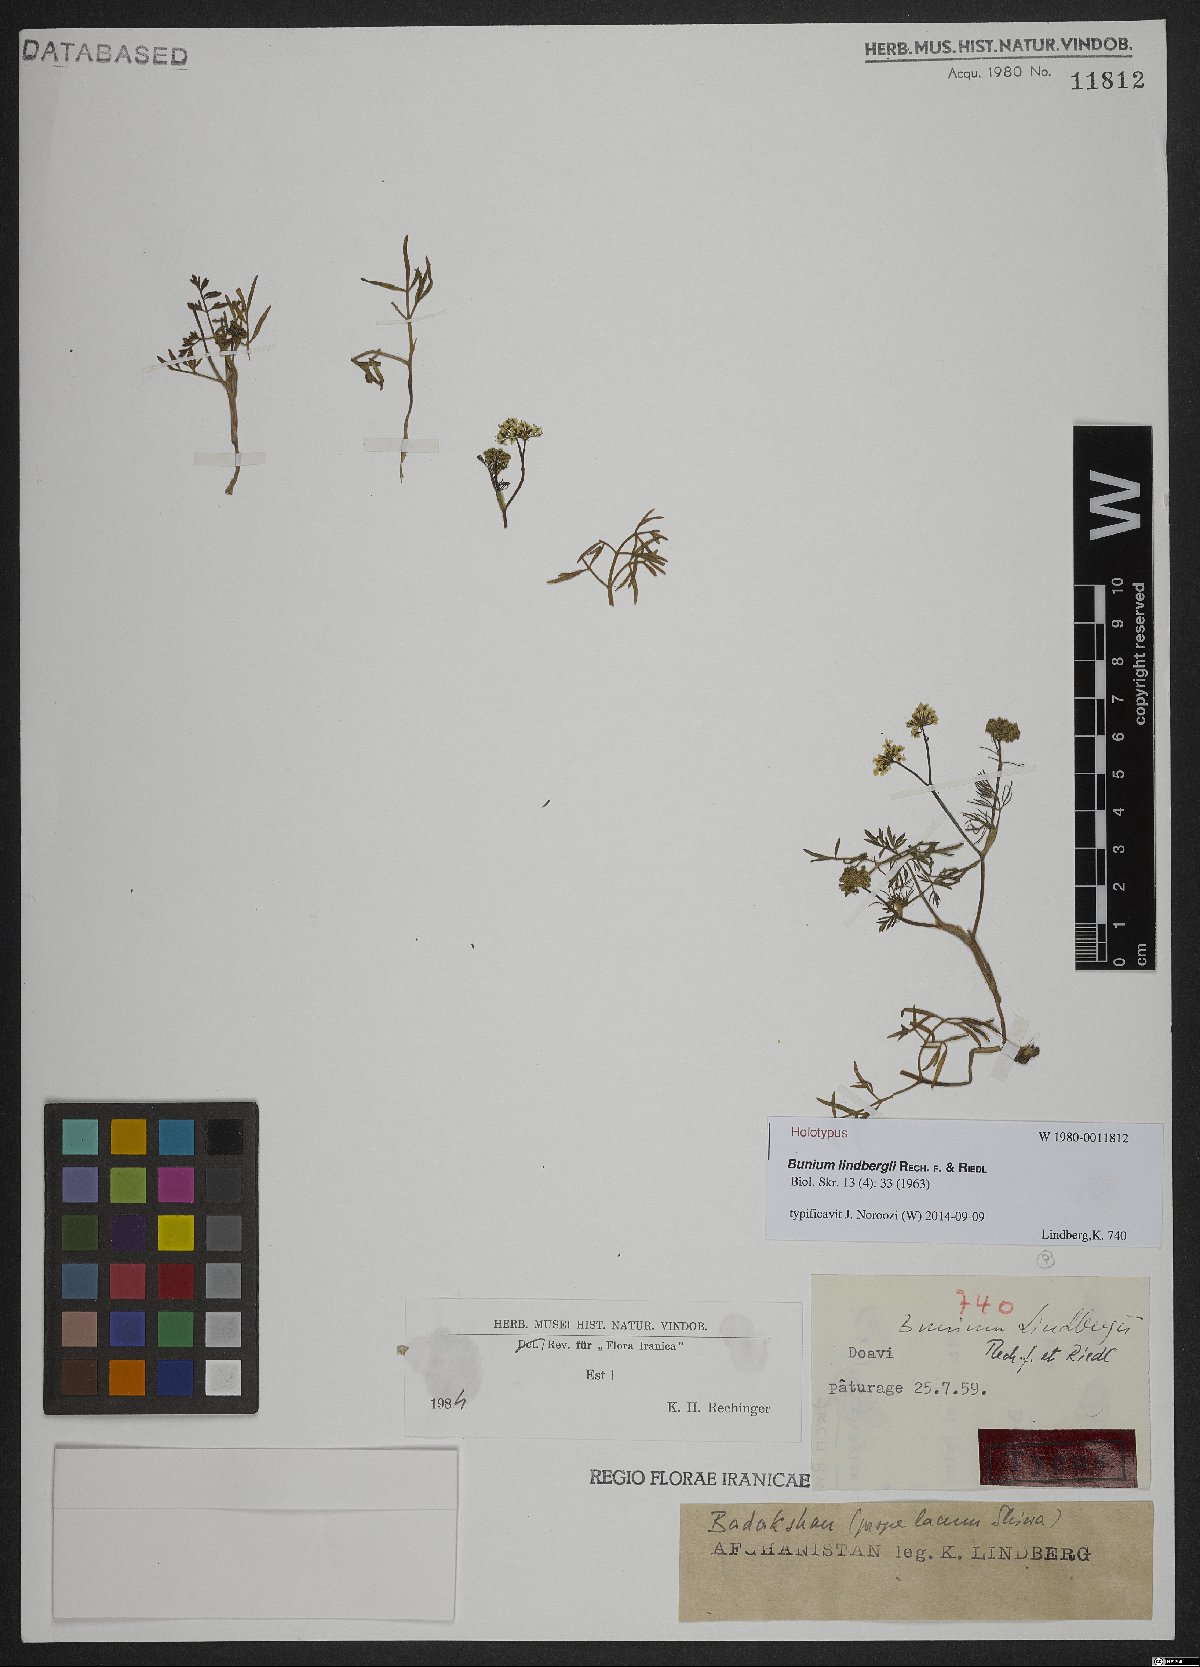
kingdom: Plantae
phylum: Tracheophyta
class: Magnoliopsida
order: Apiales
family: Apiaceae
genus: Elwendia
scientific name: Elwendia lindbergii
